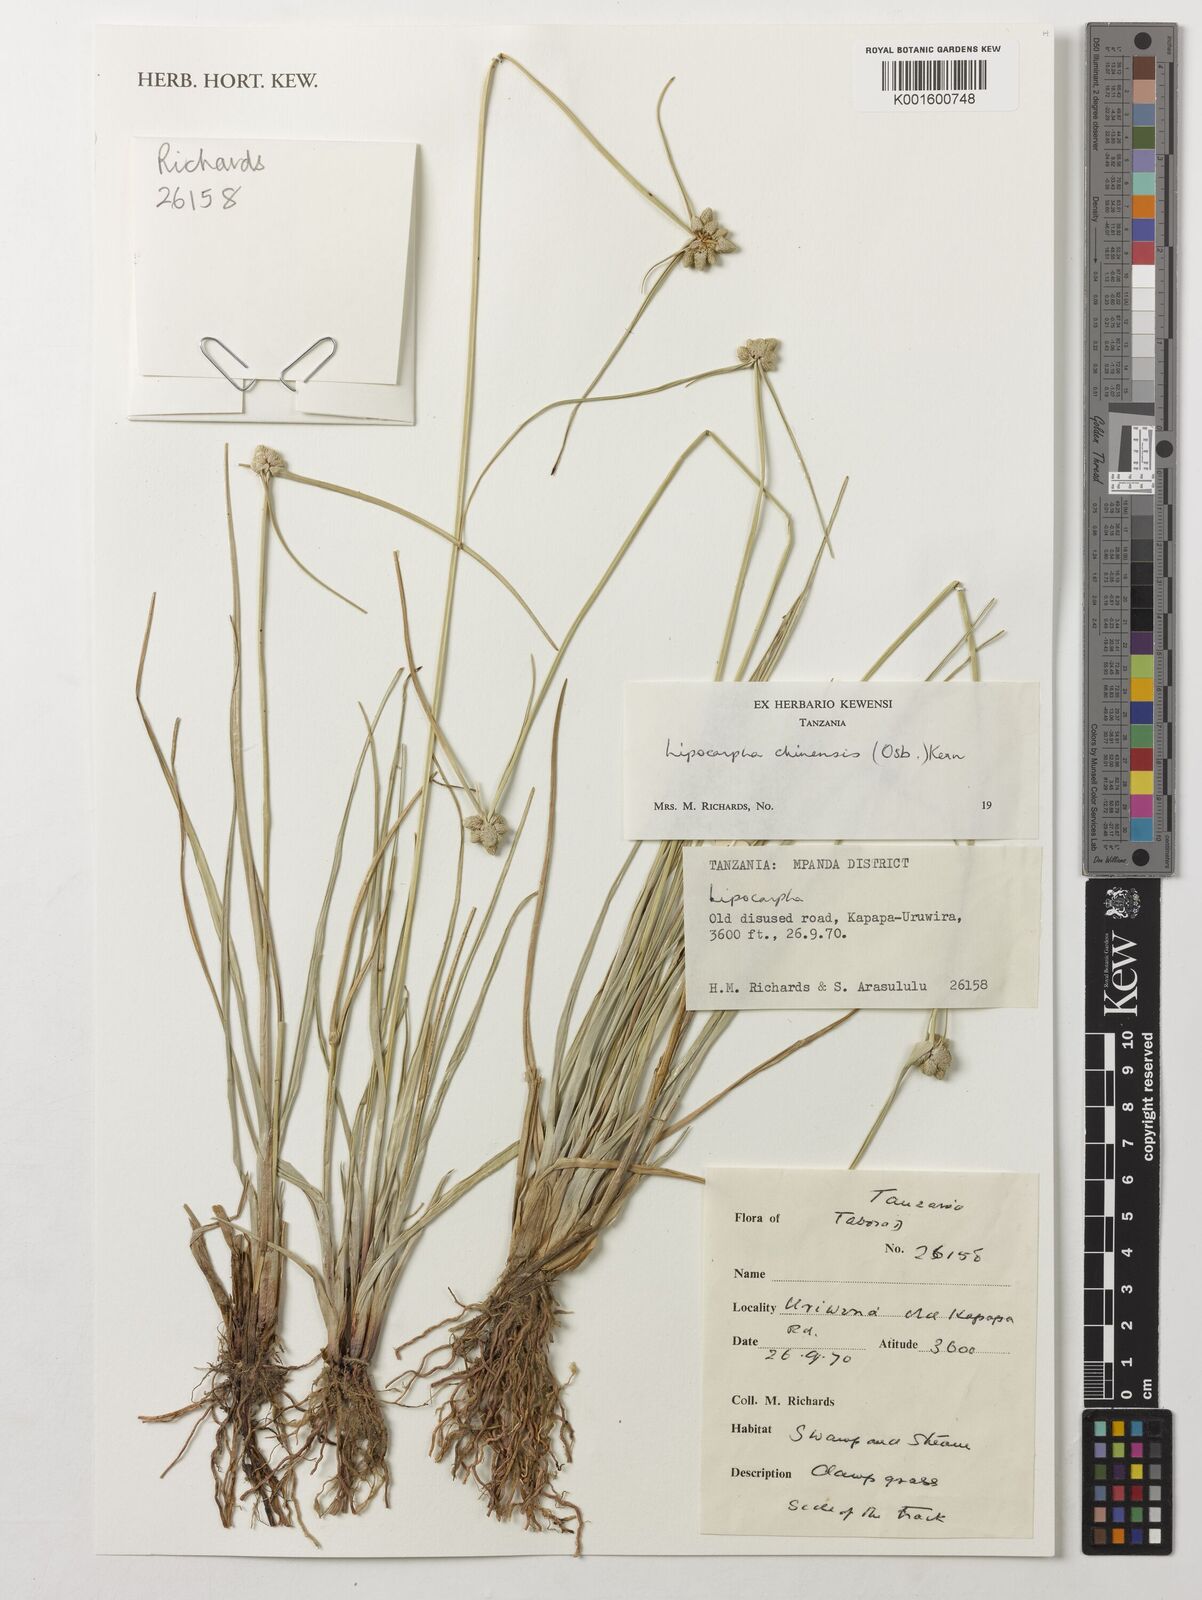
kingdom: Plantae
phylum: Tracheophyta
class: Liliopsida
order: Poales
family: Cyperaceae
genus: Cyperus
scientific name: Cyperus albescens
